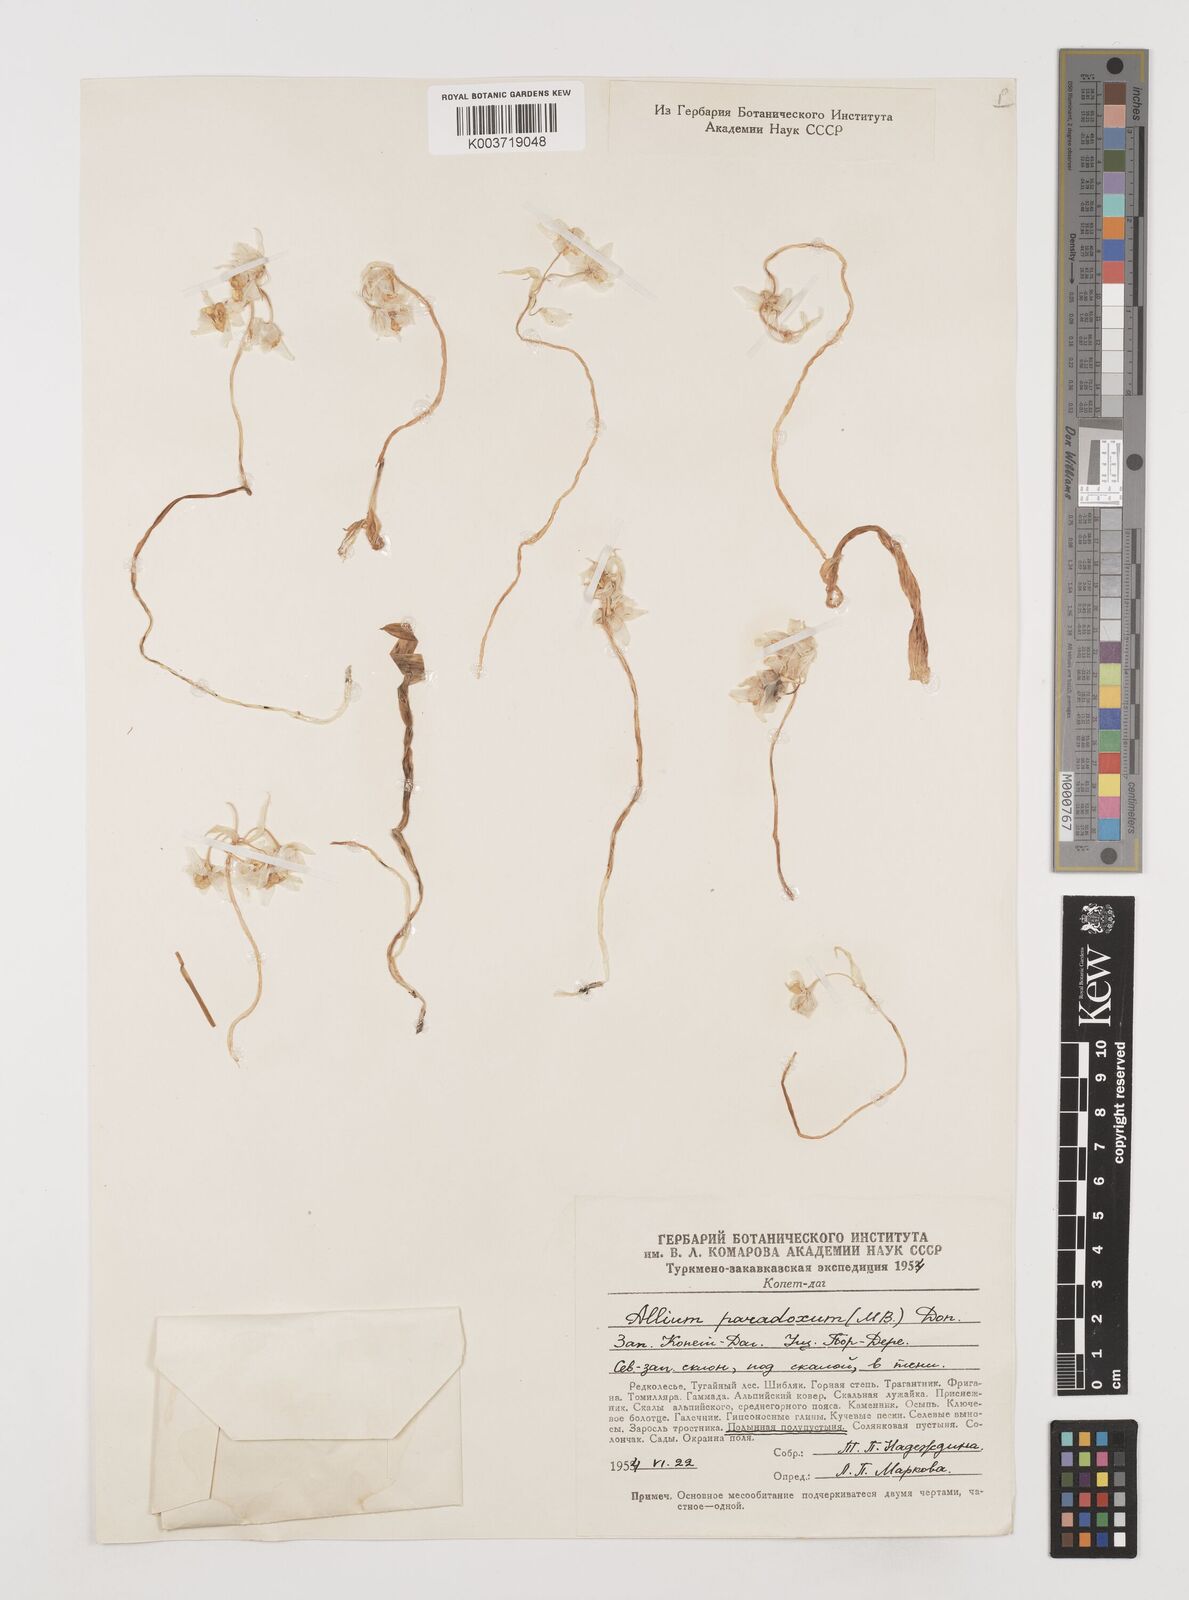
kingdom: Plantae
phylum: Tracheophyta
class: Liliopsida
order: Asparagales
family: Amaryllidaceae
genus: Allium
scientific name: Allium paradoxum
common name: Few-flowered garlic
